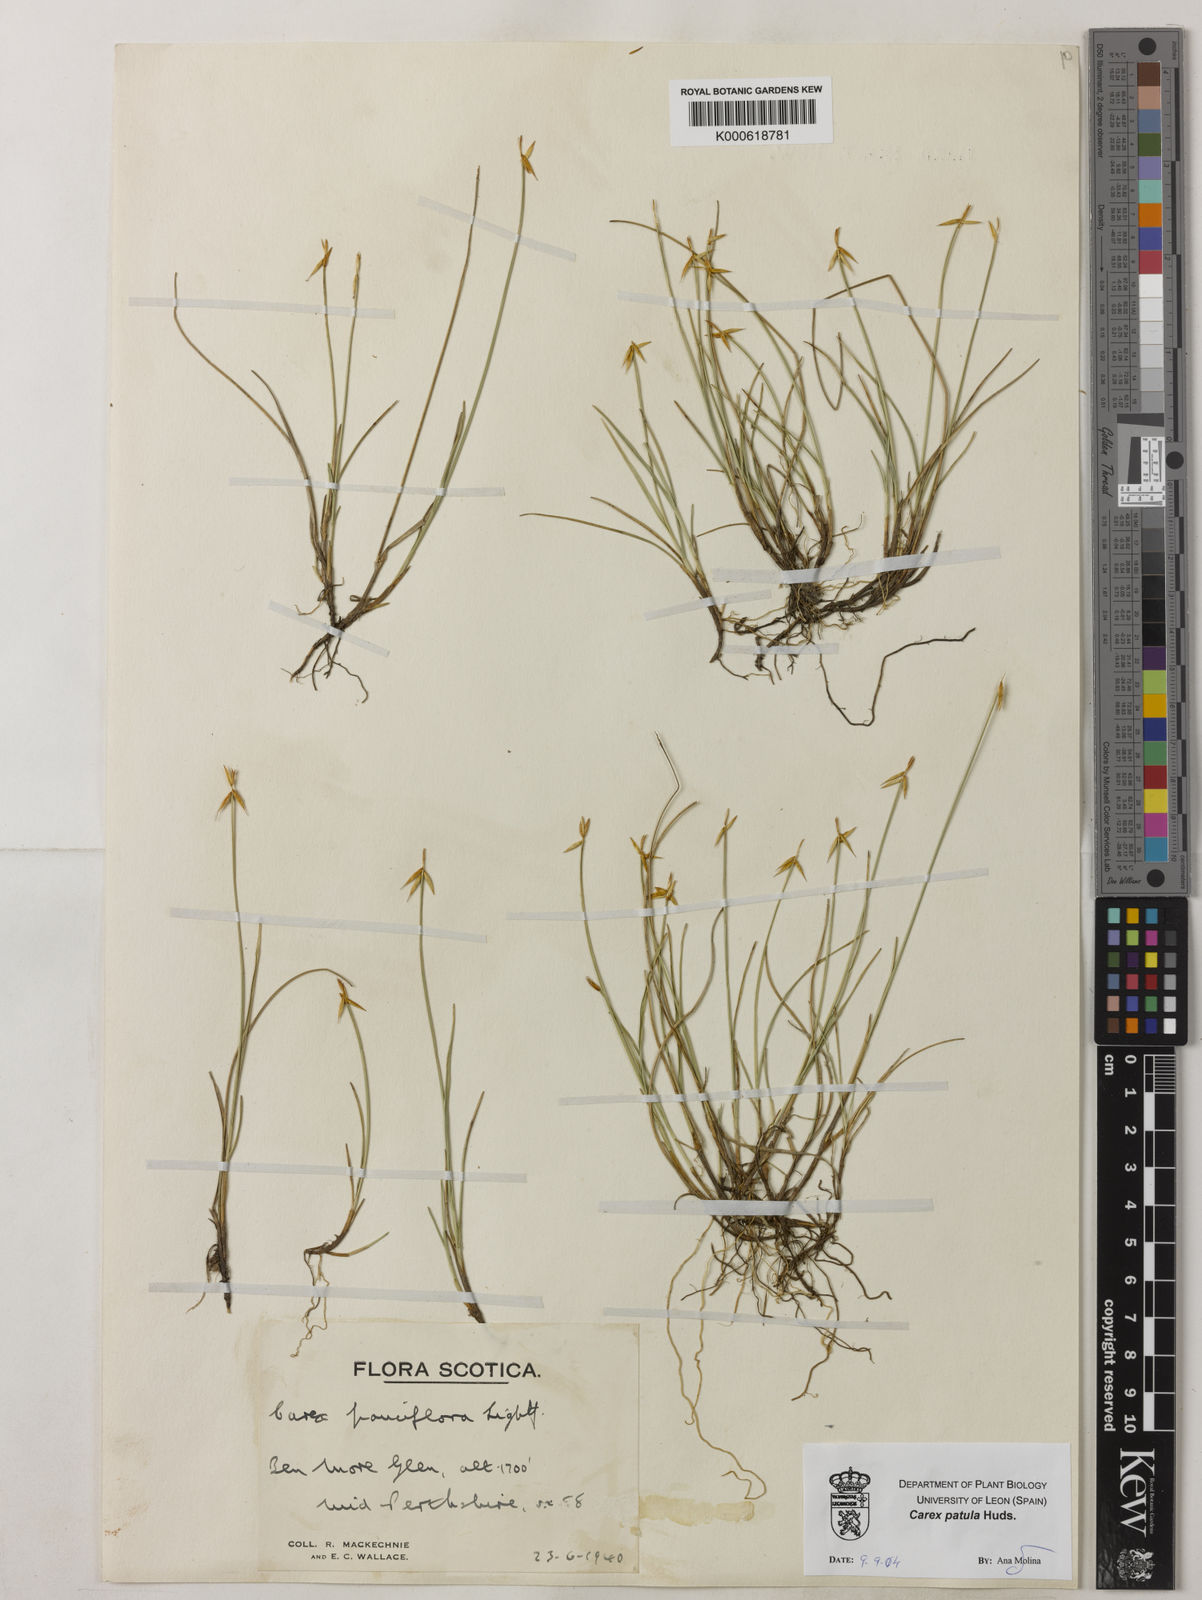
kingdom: Plantae
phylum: Tracheophyta
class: Liliopsida
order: Poales
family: Cyperaceae
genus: Carex
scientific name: Carex pauciflora
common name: Few-flowered sedge
